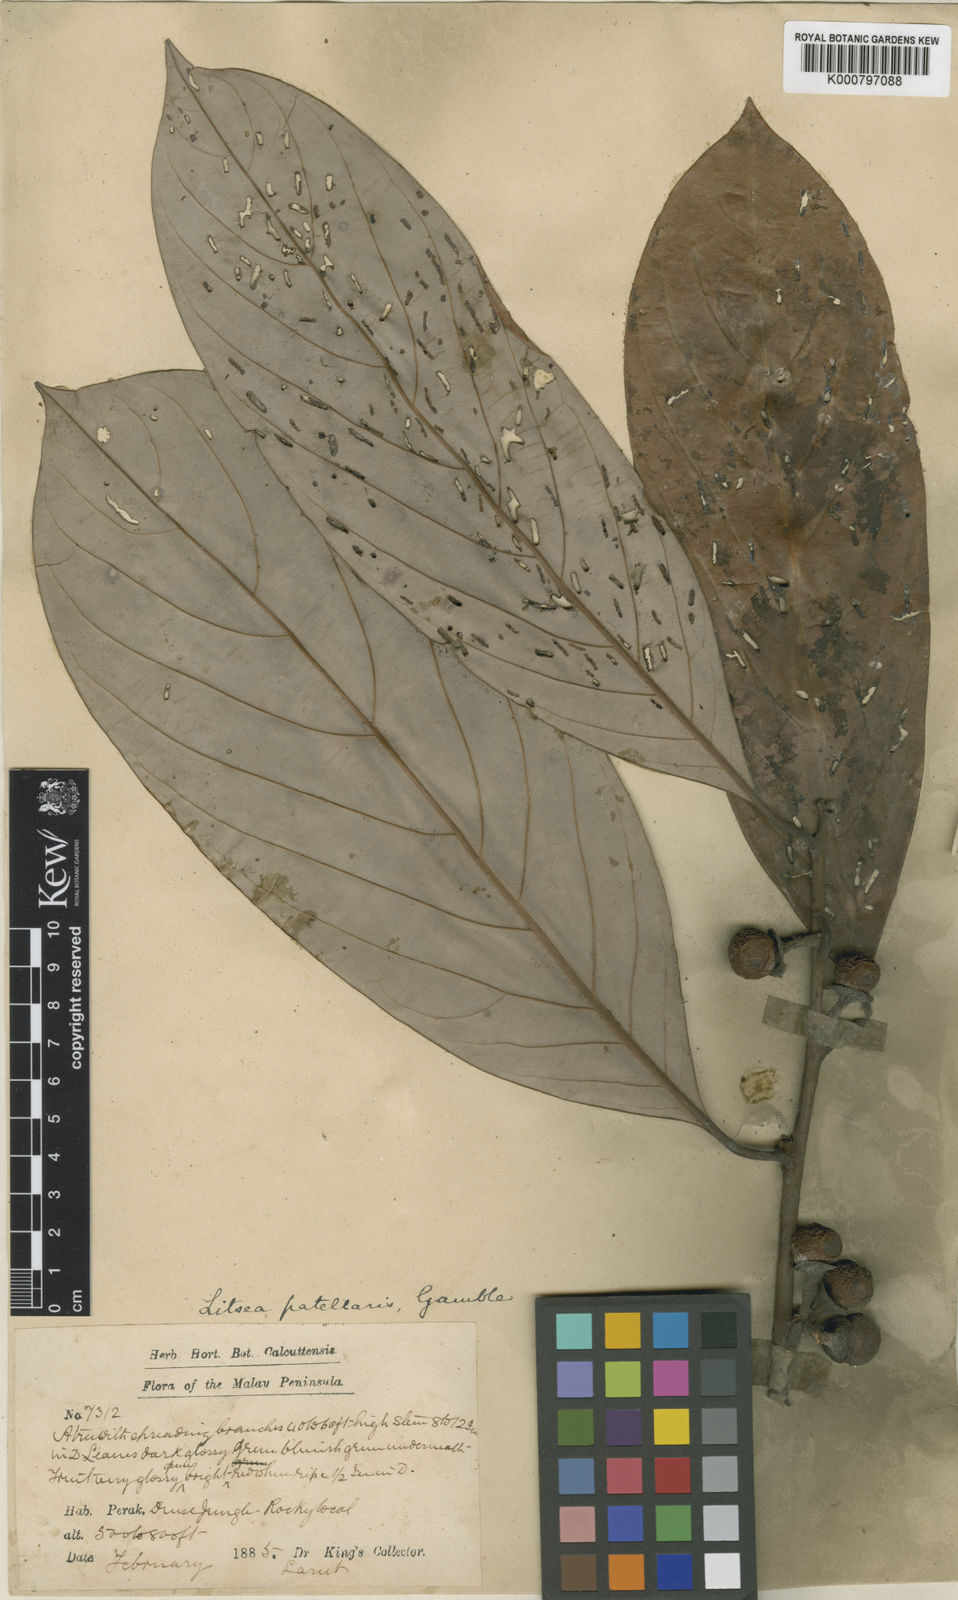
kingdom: Plantae
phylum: Tracheophyta
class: Magnoliopsida
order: Laurales
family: Lauraceae
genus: Litsea
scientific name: Litsea accedens
